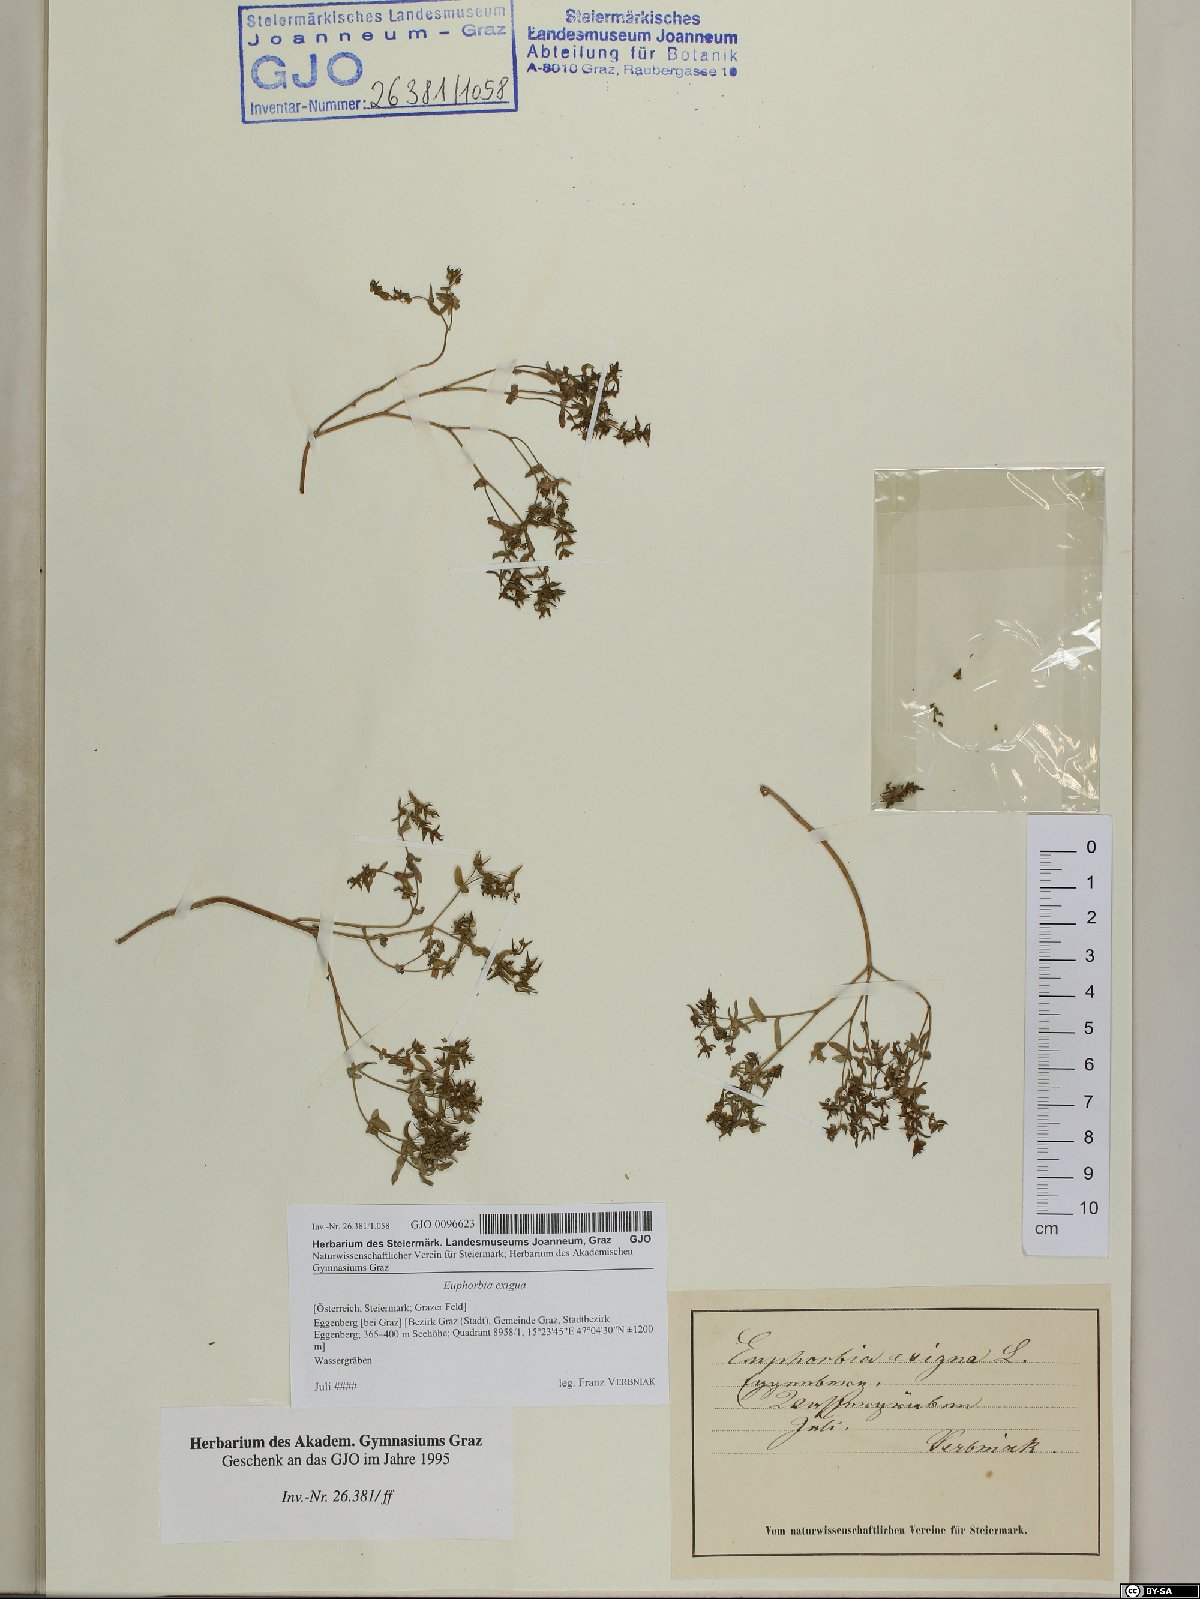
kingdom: Plantae
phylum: Tracheophyta
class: Magnoliopsida
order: Malpighiales
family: Euphorbiaceae
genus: Euphorbia
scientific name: Euphorbia exigua
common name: Dwarf spurge
